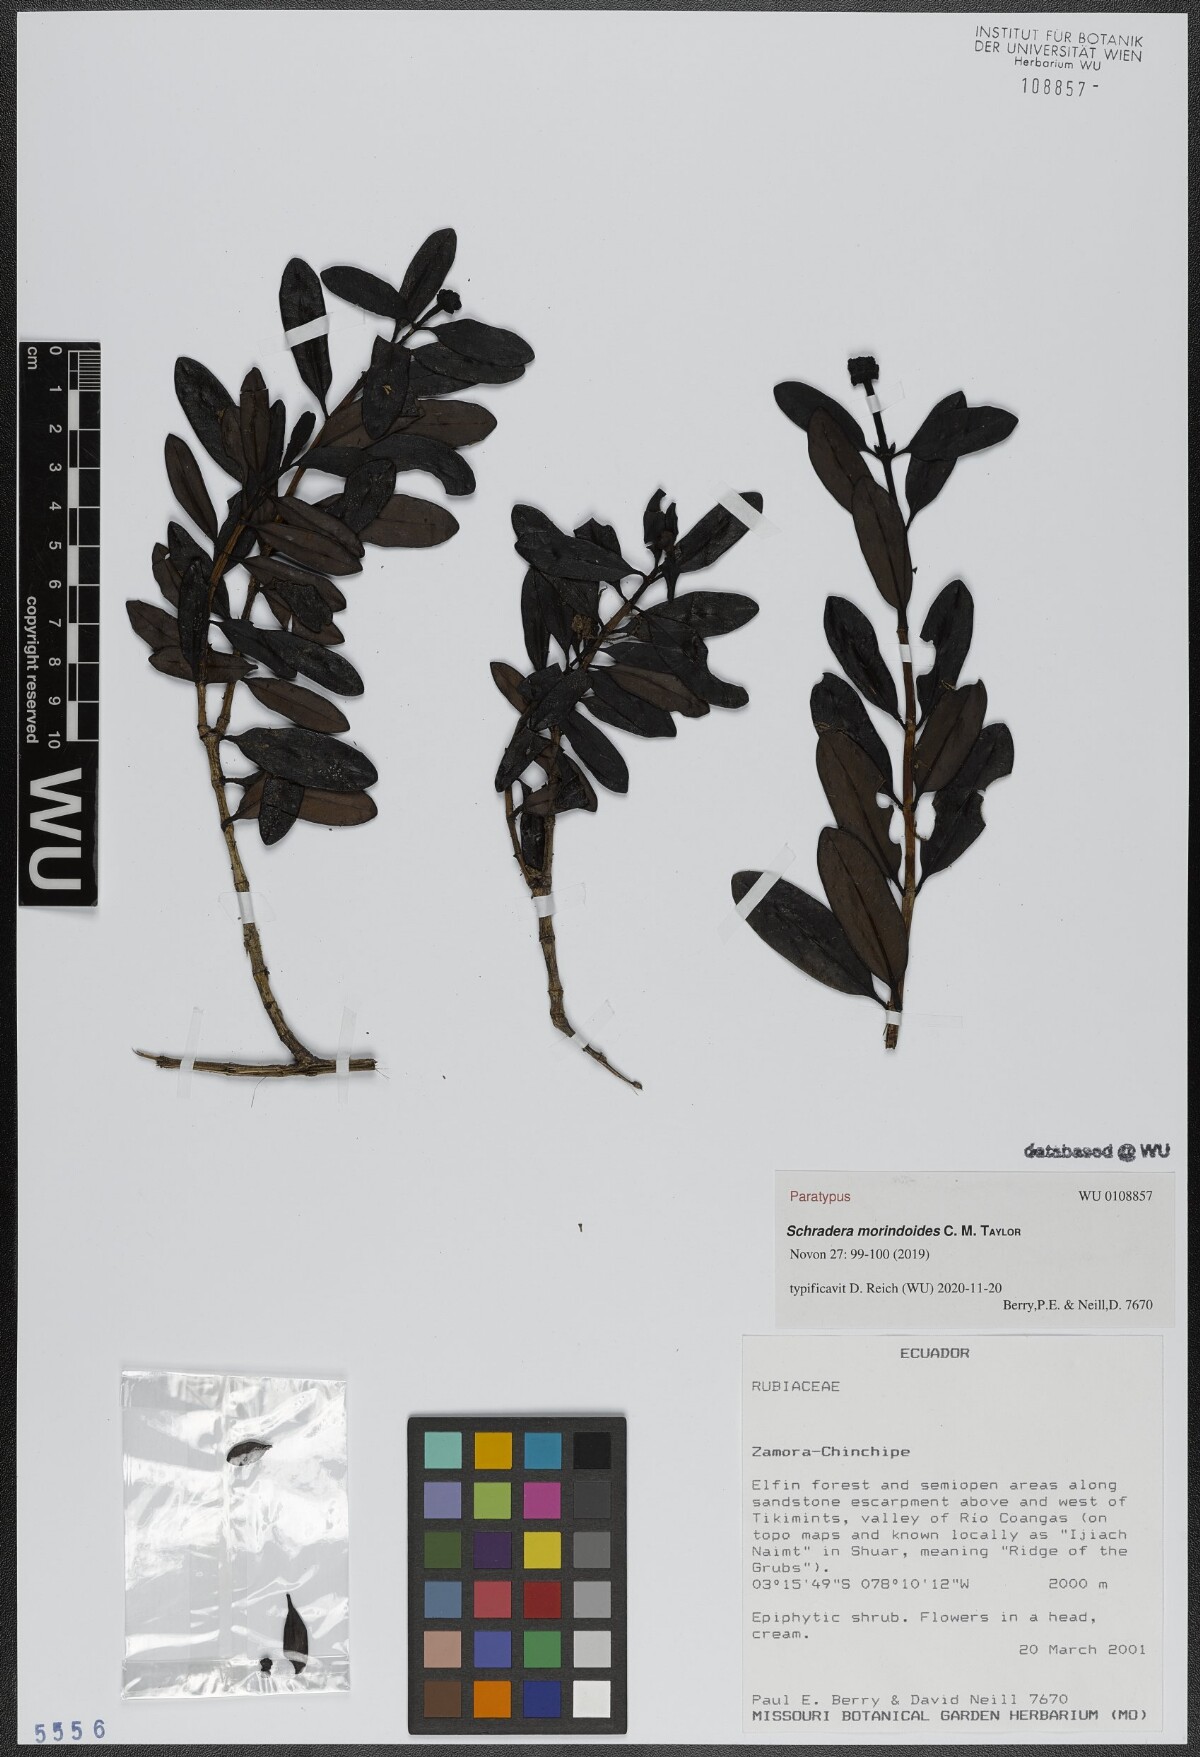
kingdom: Plantae
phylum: Tracheophyta
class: Magnoliopsida
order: Gentianales
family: Rubiaceae
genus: Schradera
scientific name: Schradera morindoides
